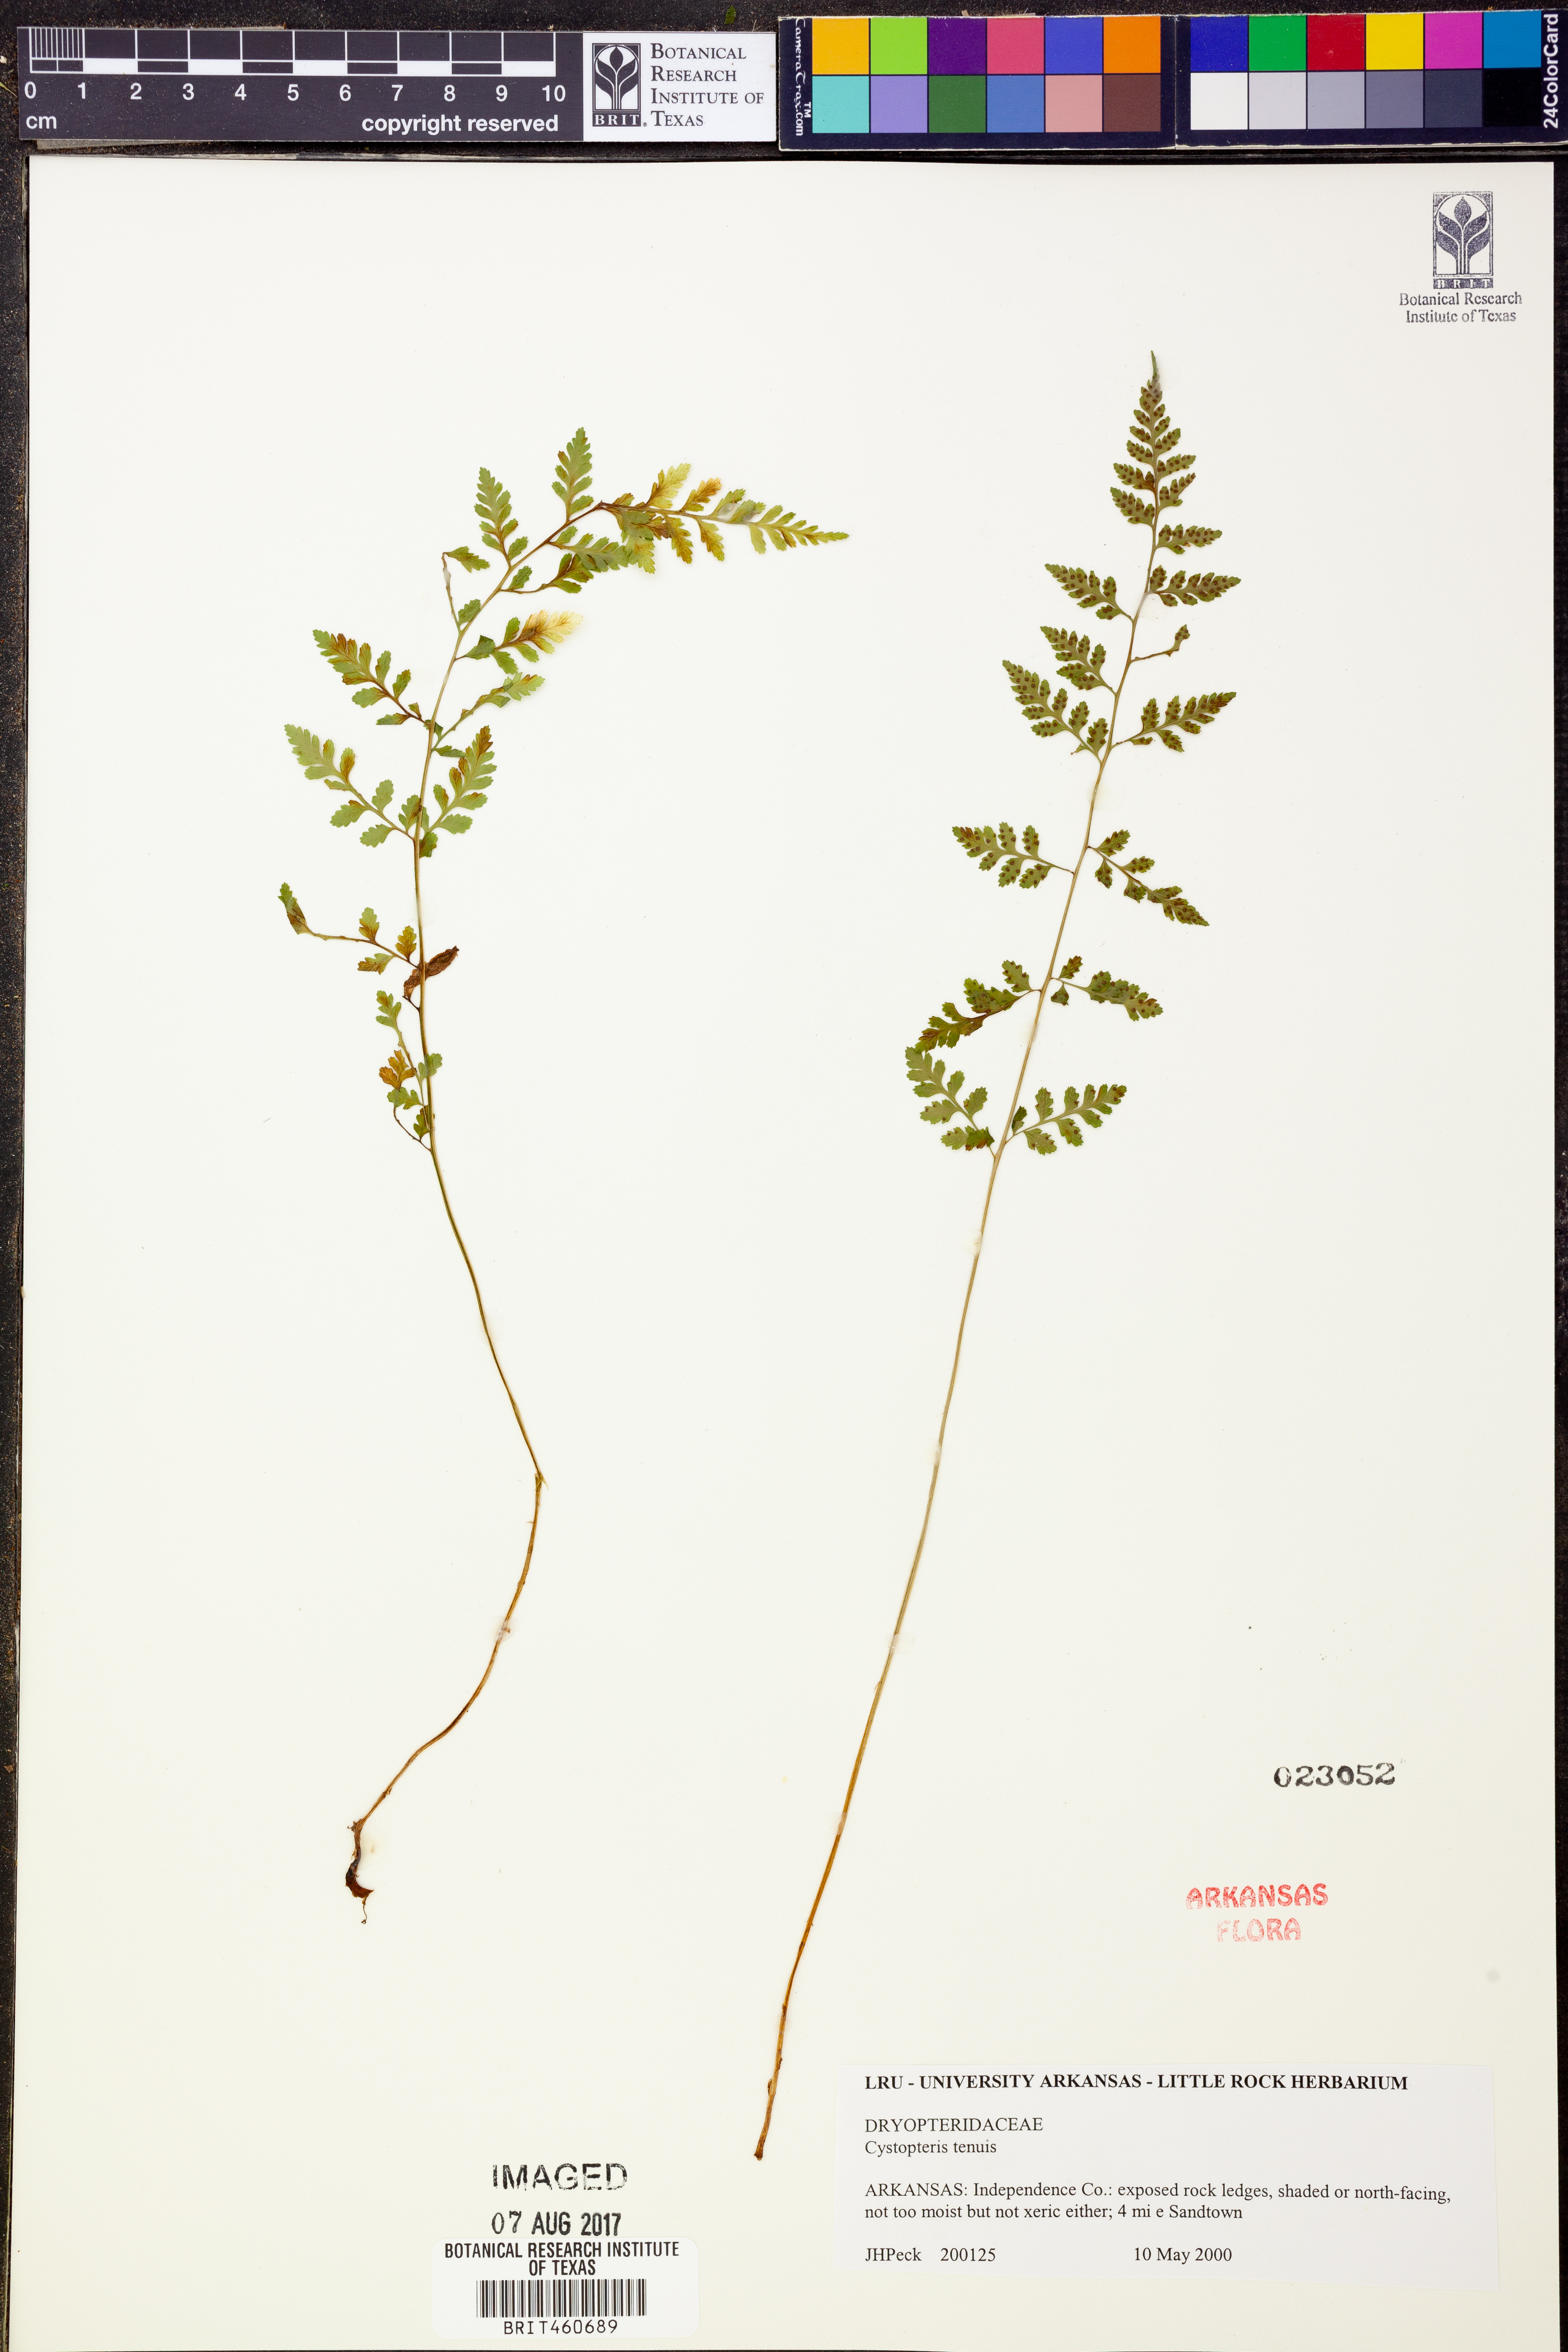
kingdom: Plantae
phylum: Tracheophyta
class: Polypodiopsida
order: Polypodiales
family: Cystopteridaceae
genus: Cystopteris
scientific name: Cystopteris tenuis
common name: Mackay's brittle fern
